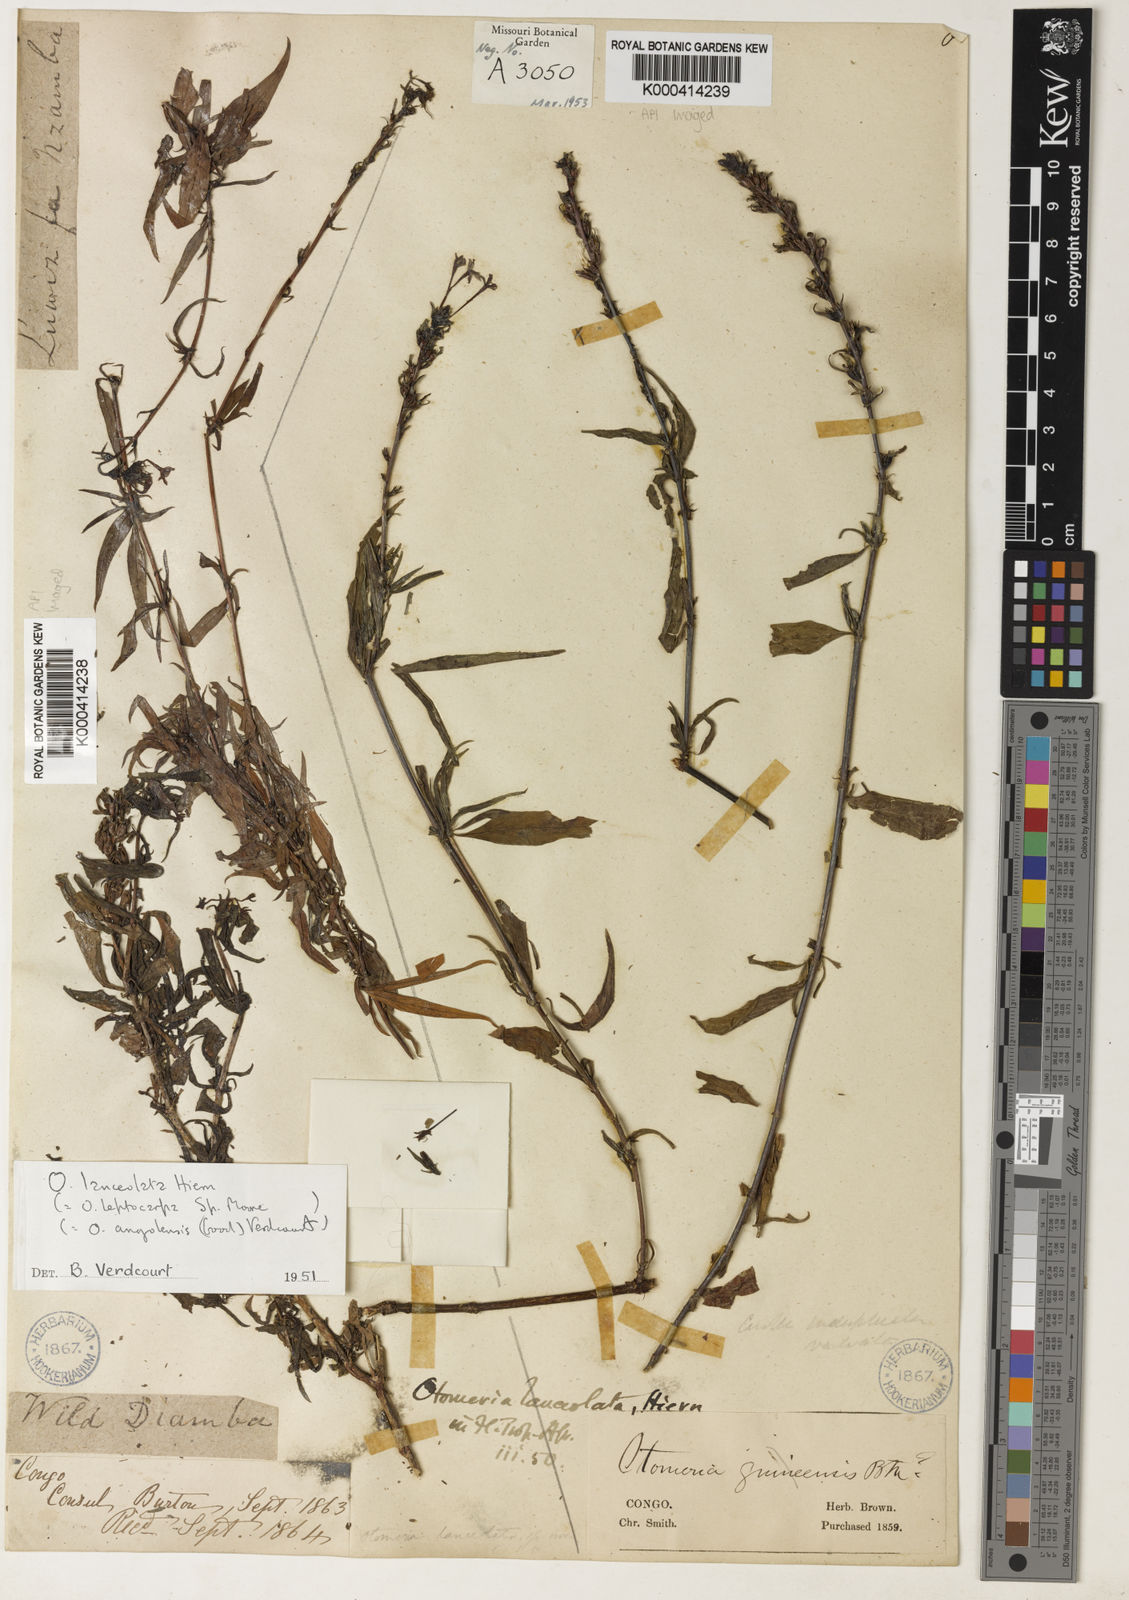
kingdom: Plantae
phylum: Tracheophyta
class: Magnoliopsida
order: Gentianales
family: Rubiaceae
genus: Otomeria
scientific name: Otomeria lanceolata
